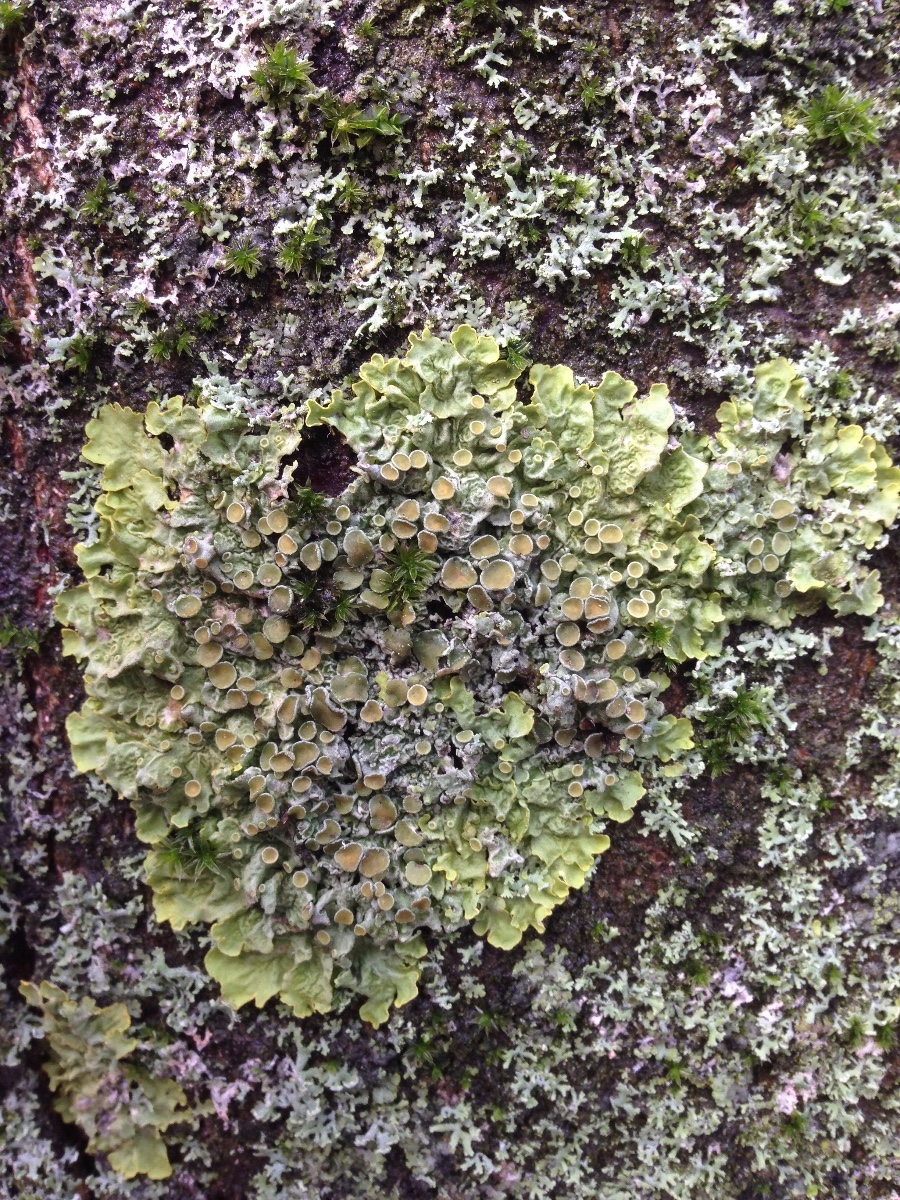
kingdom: Fungi
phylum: Ascomycota
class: Lecanoromycetes
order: Teloschistales
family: Teloschistaceae
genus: Xanthoria
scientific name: Xanthoria parietina
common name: almindelig væggelav
